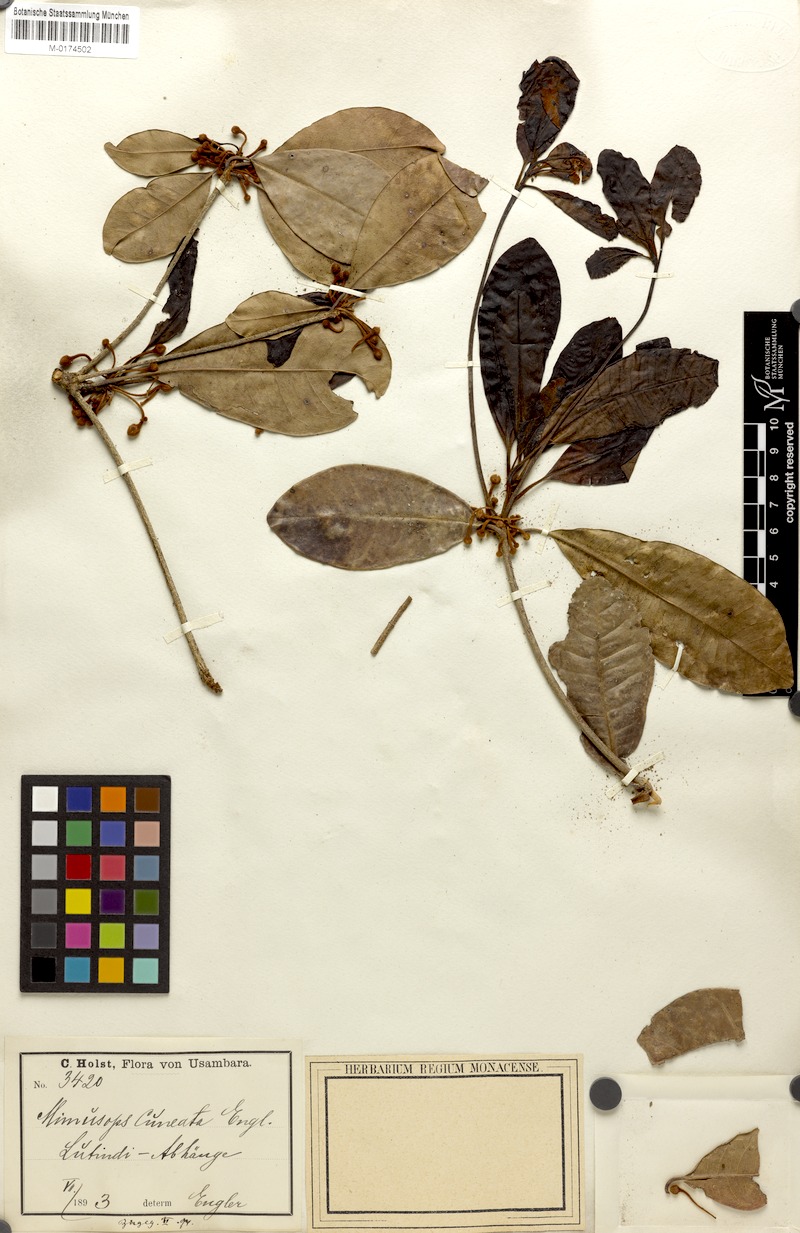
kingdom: Plantae
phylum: Tracheophyta
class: Magnoliopsida
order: Ericales
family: Sapotaceae
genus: Vitellariopsis
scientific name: Vitellariopsis cuneata
